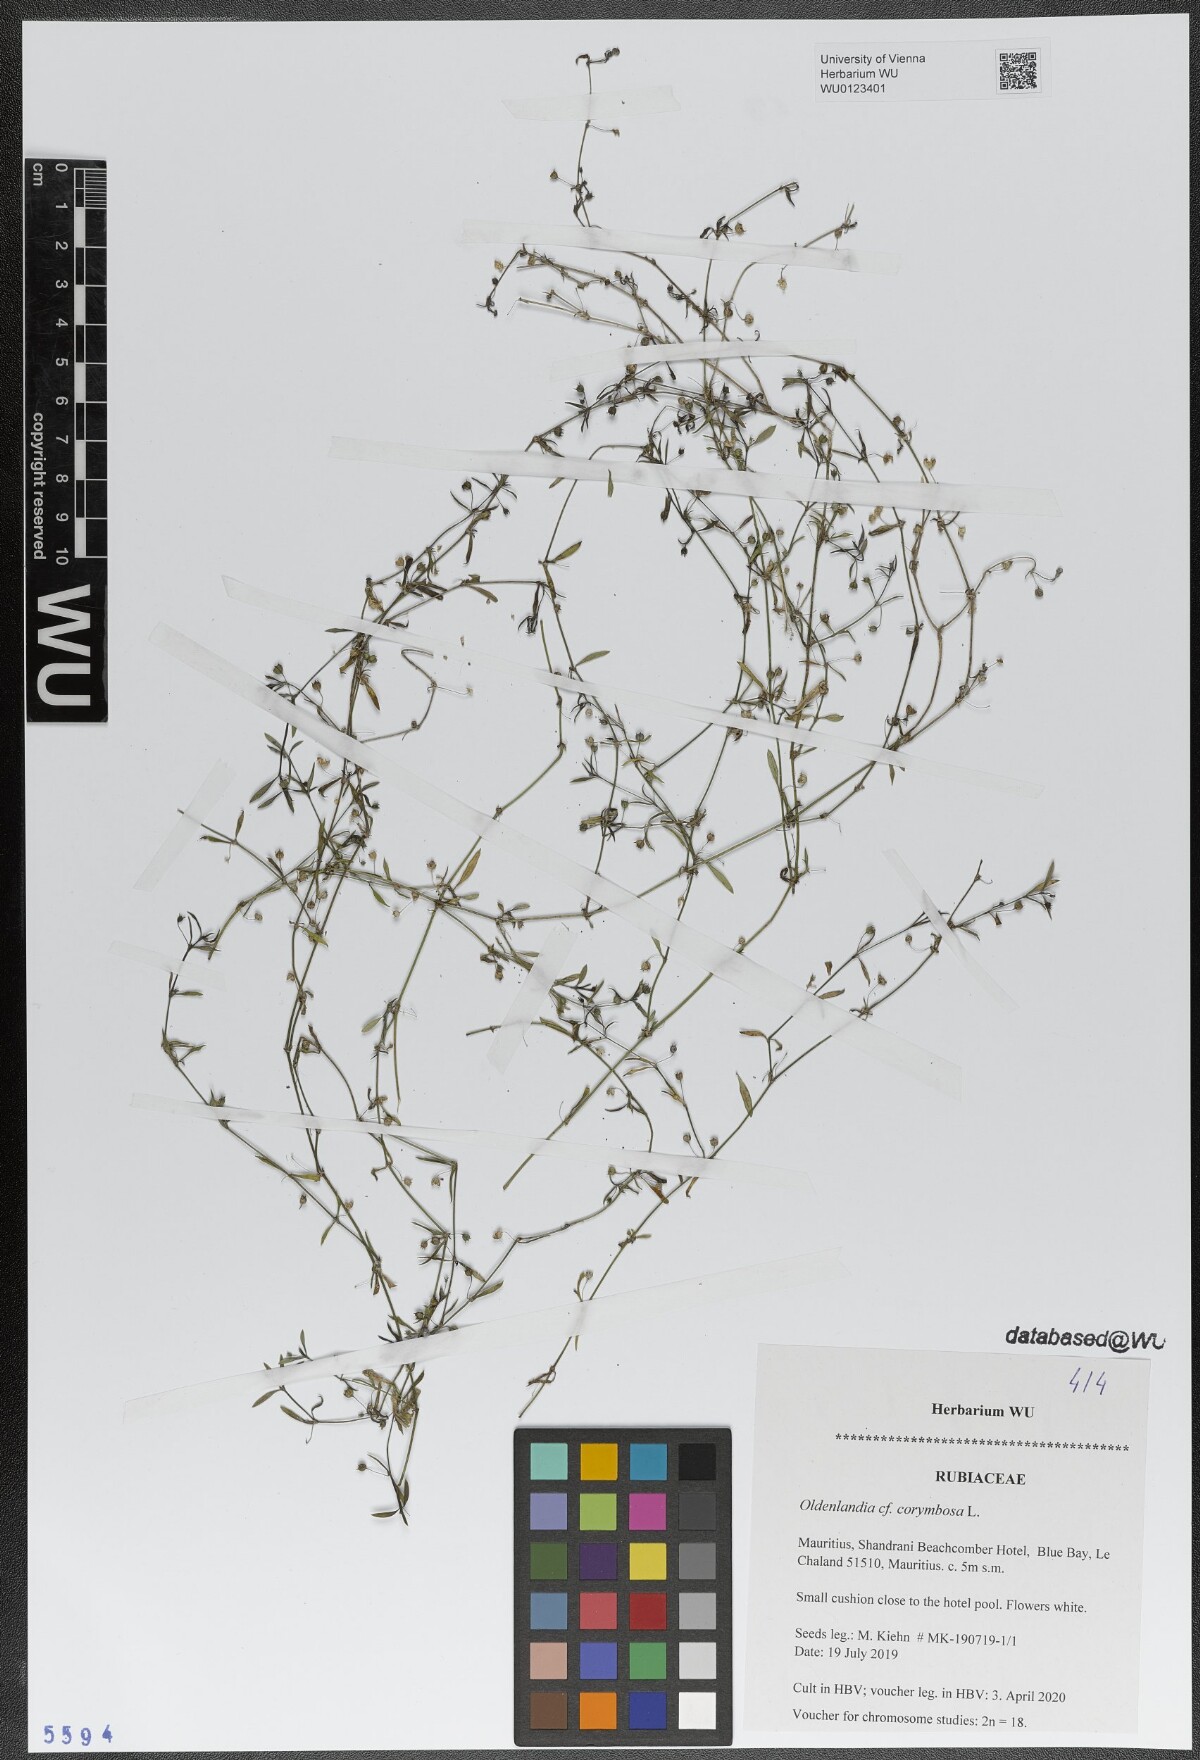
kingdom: Plantae
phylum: Tracheophyta
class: Magnoliopsida
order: Gentianales
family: Rubiaceae
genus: Oldenlandia
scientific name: Oldenlandia corymbosa
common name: Flat-top mille graines
